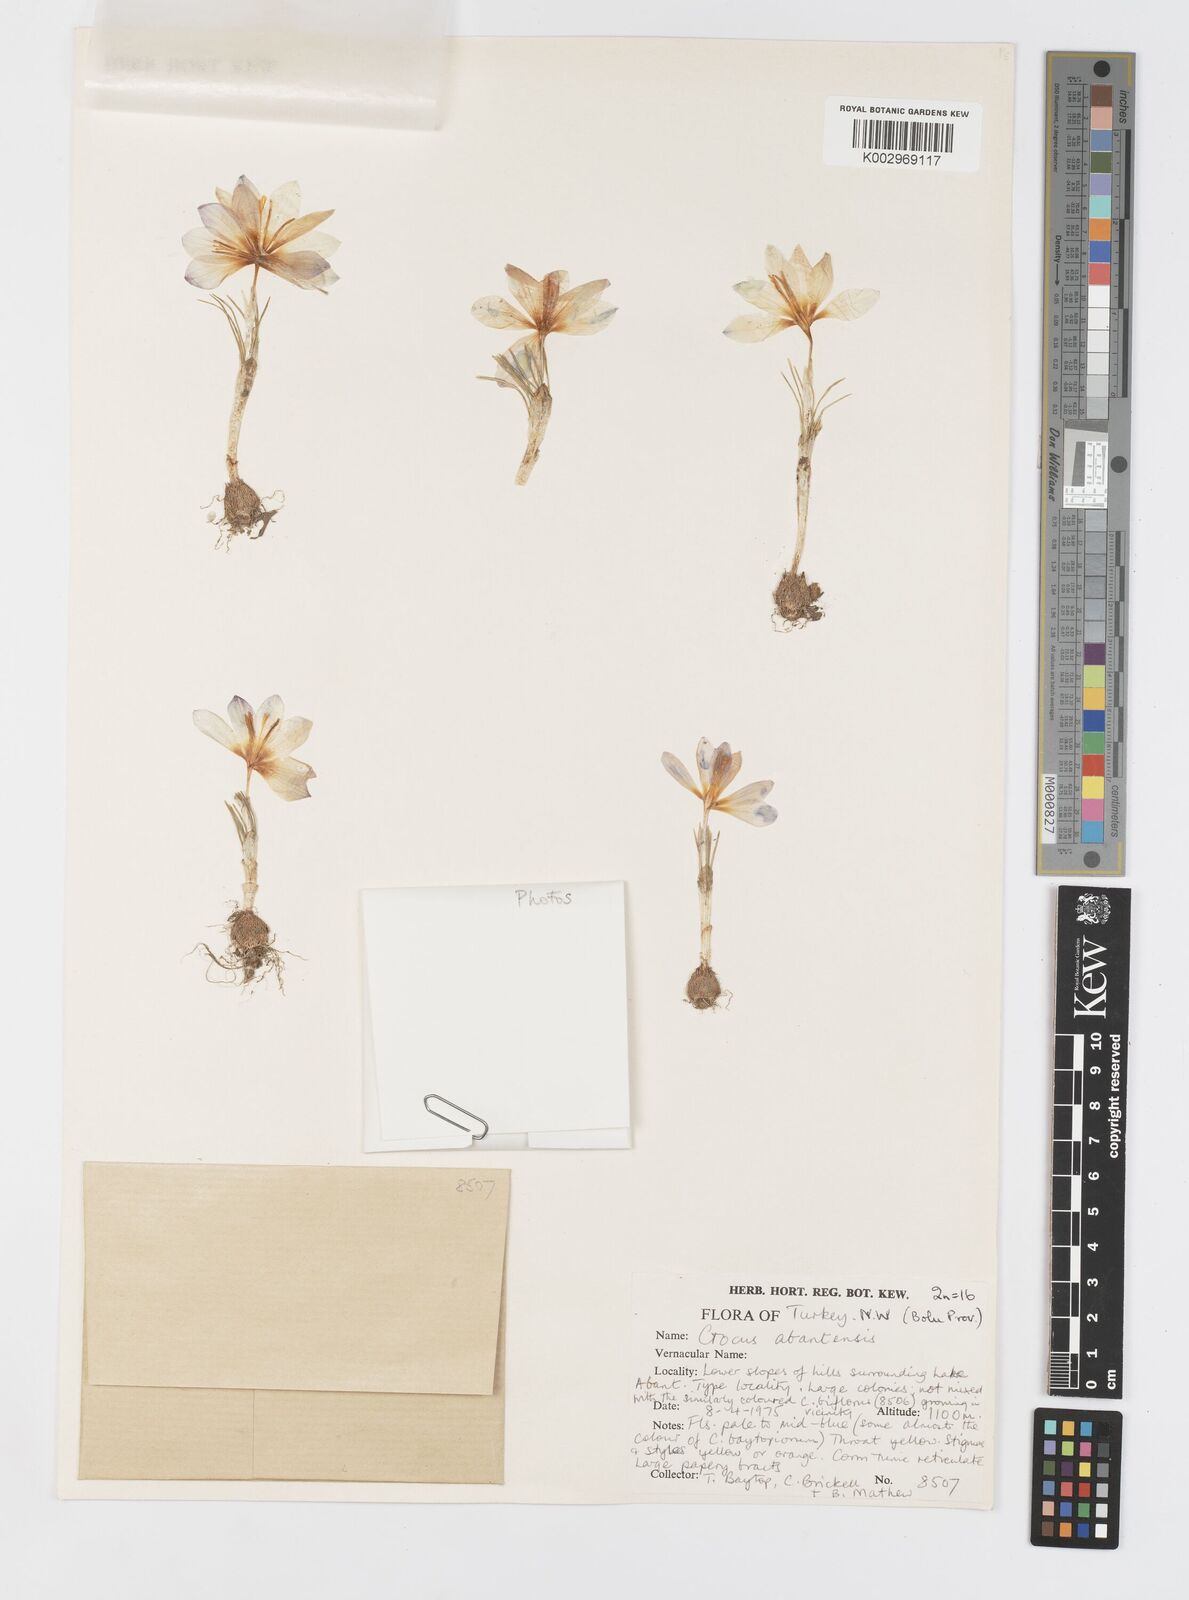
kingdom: Plantae
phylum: Tracheophyta
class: Liliopsida
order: Asparagales
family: Iridaceae
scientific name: Iridaceae
